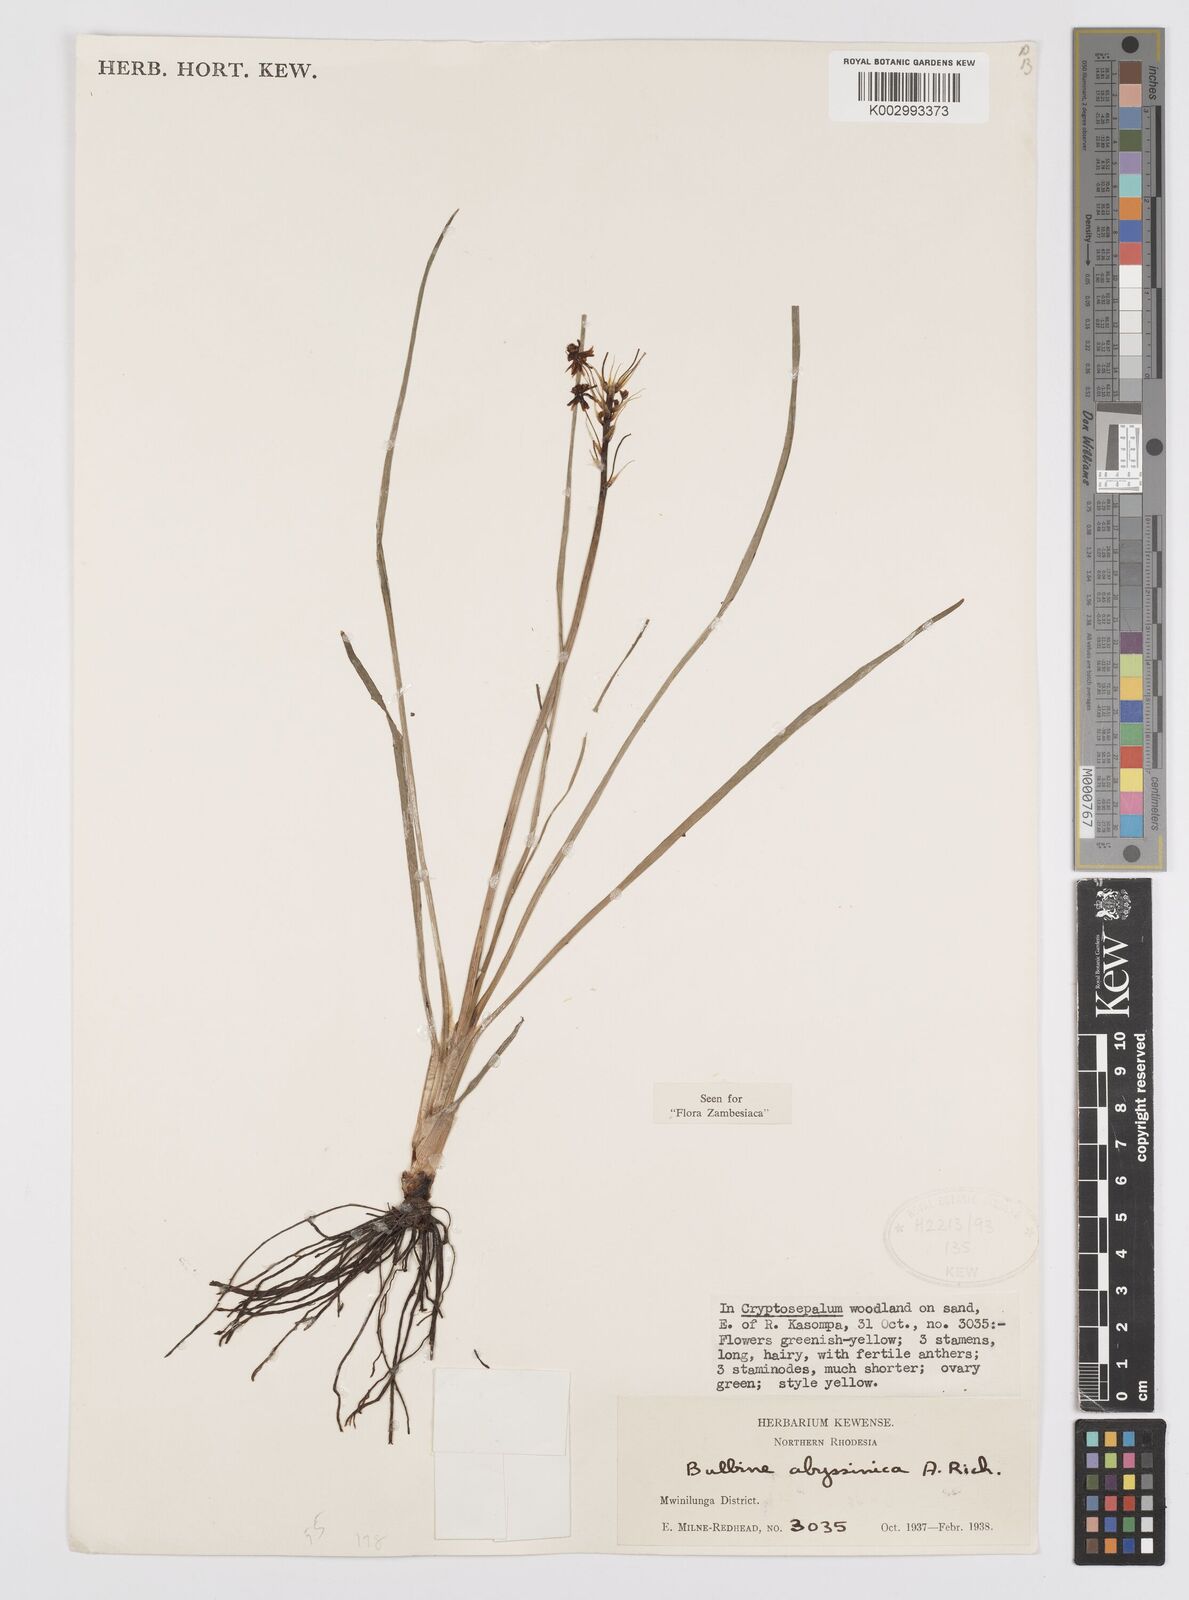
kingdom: Plantae
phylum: Tracheophyta
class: Liliopsida
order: Asparagales
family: Asphodelaceae
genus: Bulbine
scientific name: Bulbine abyssinica
